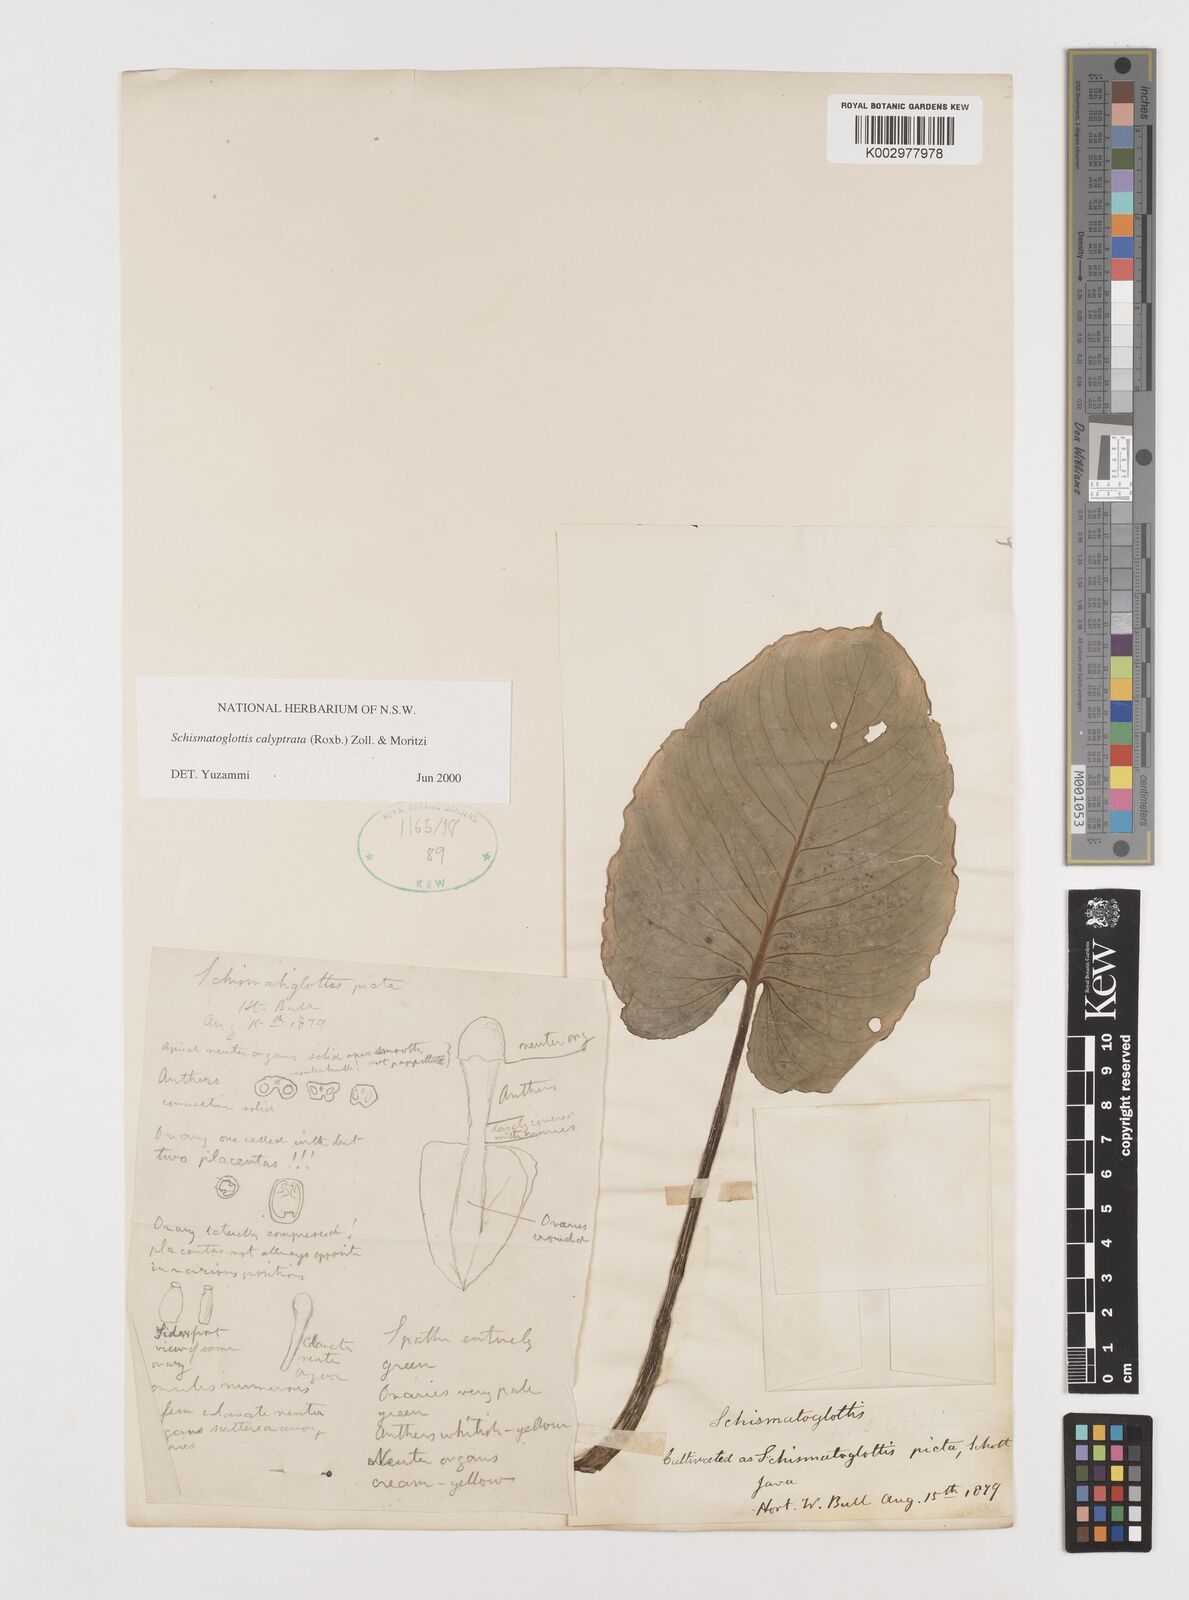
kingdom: Plantae
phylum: Tracheophyta
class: Liliopsida
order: Alismatales
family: Araceae
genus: Schismatoglottis
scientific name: Schismatoglottis calyptrata
